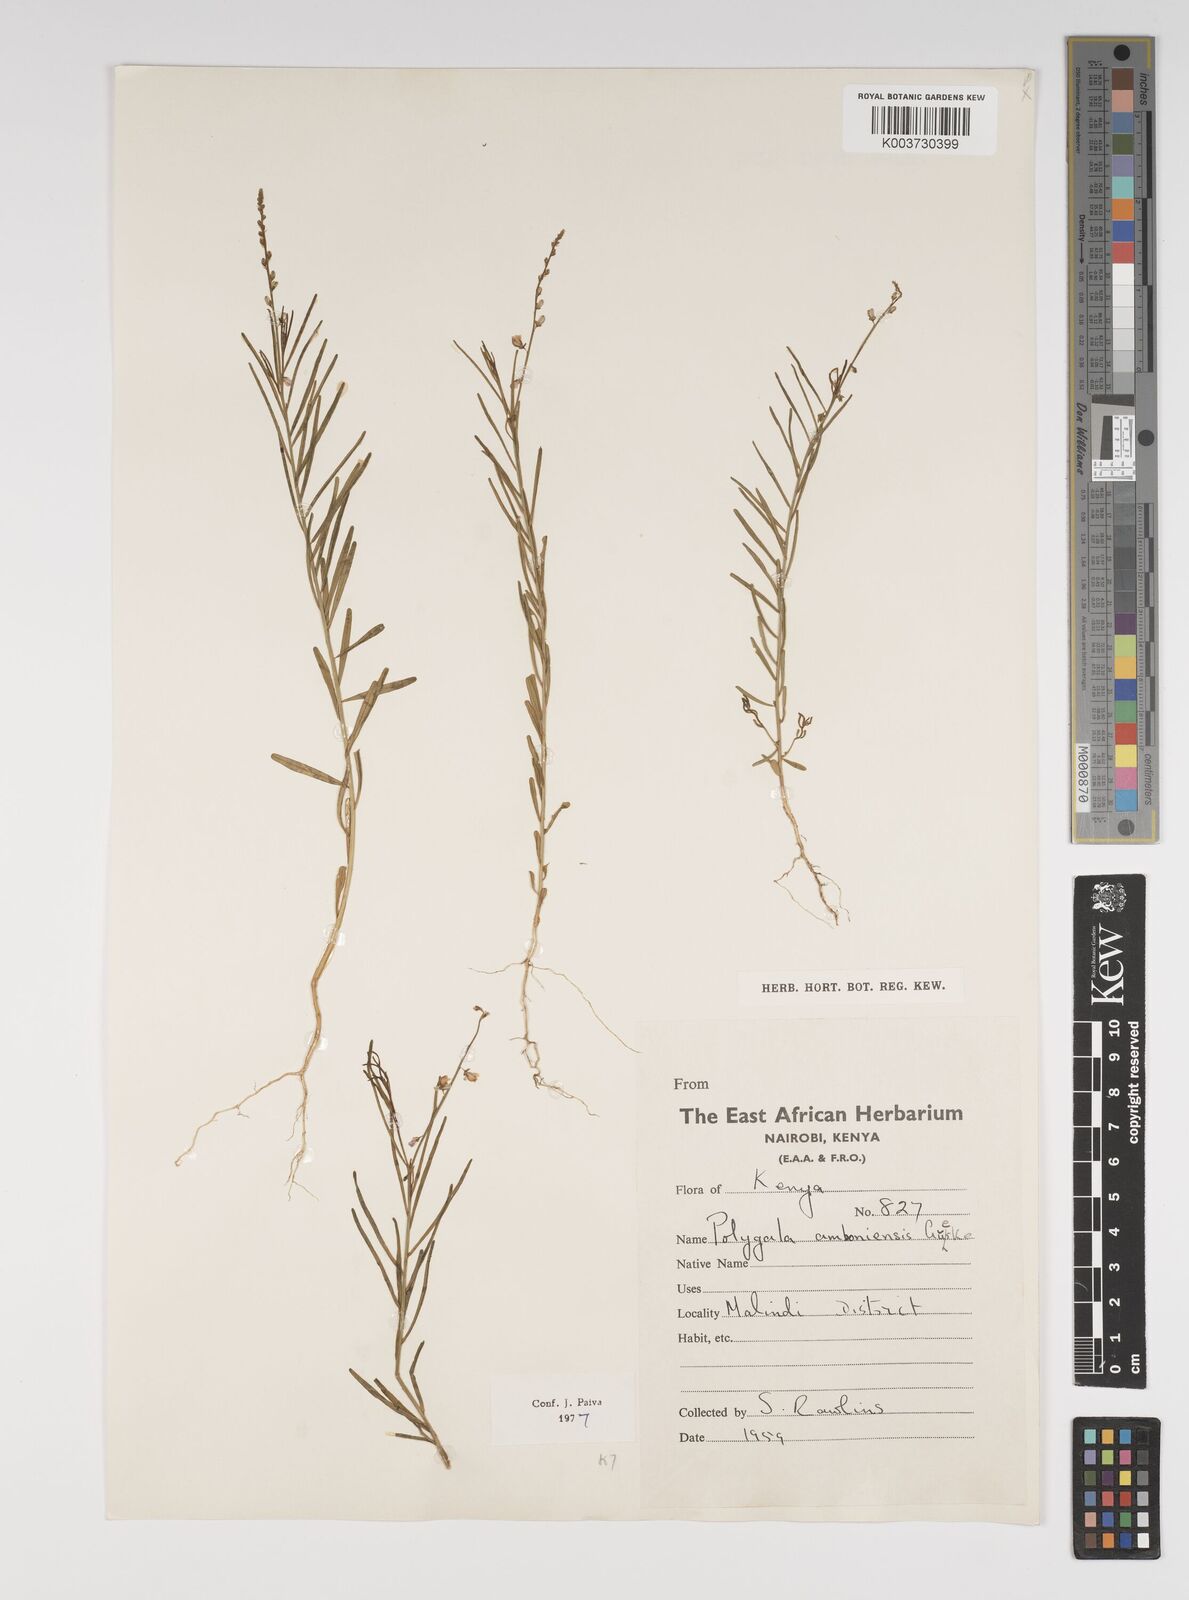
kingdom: Plantae
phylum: Tracheophyta
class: Magnoliopsida
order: Fabales
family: Polygalaceae
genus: Polygala
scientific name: Polygala amboniensis
